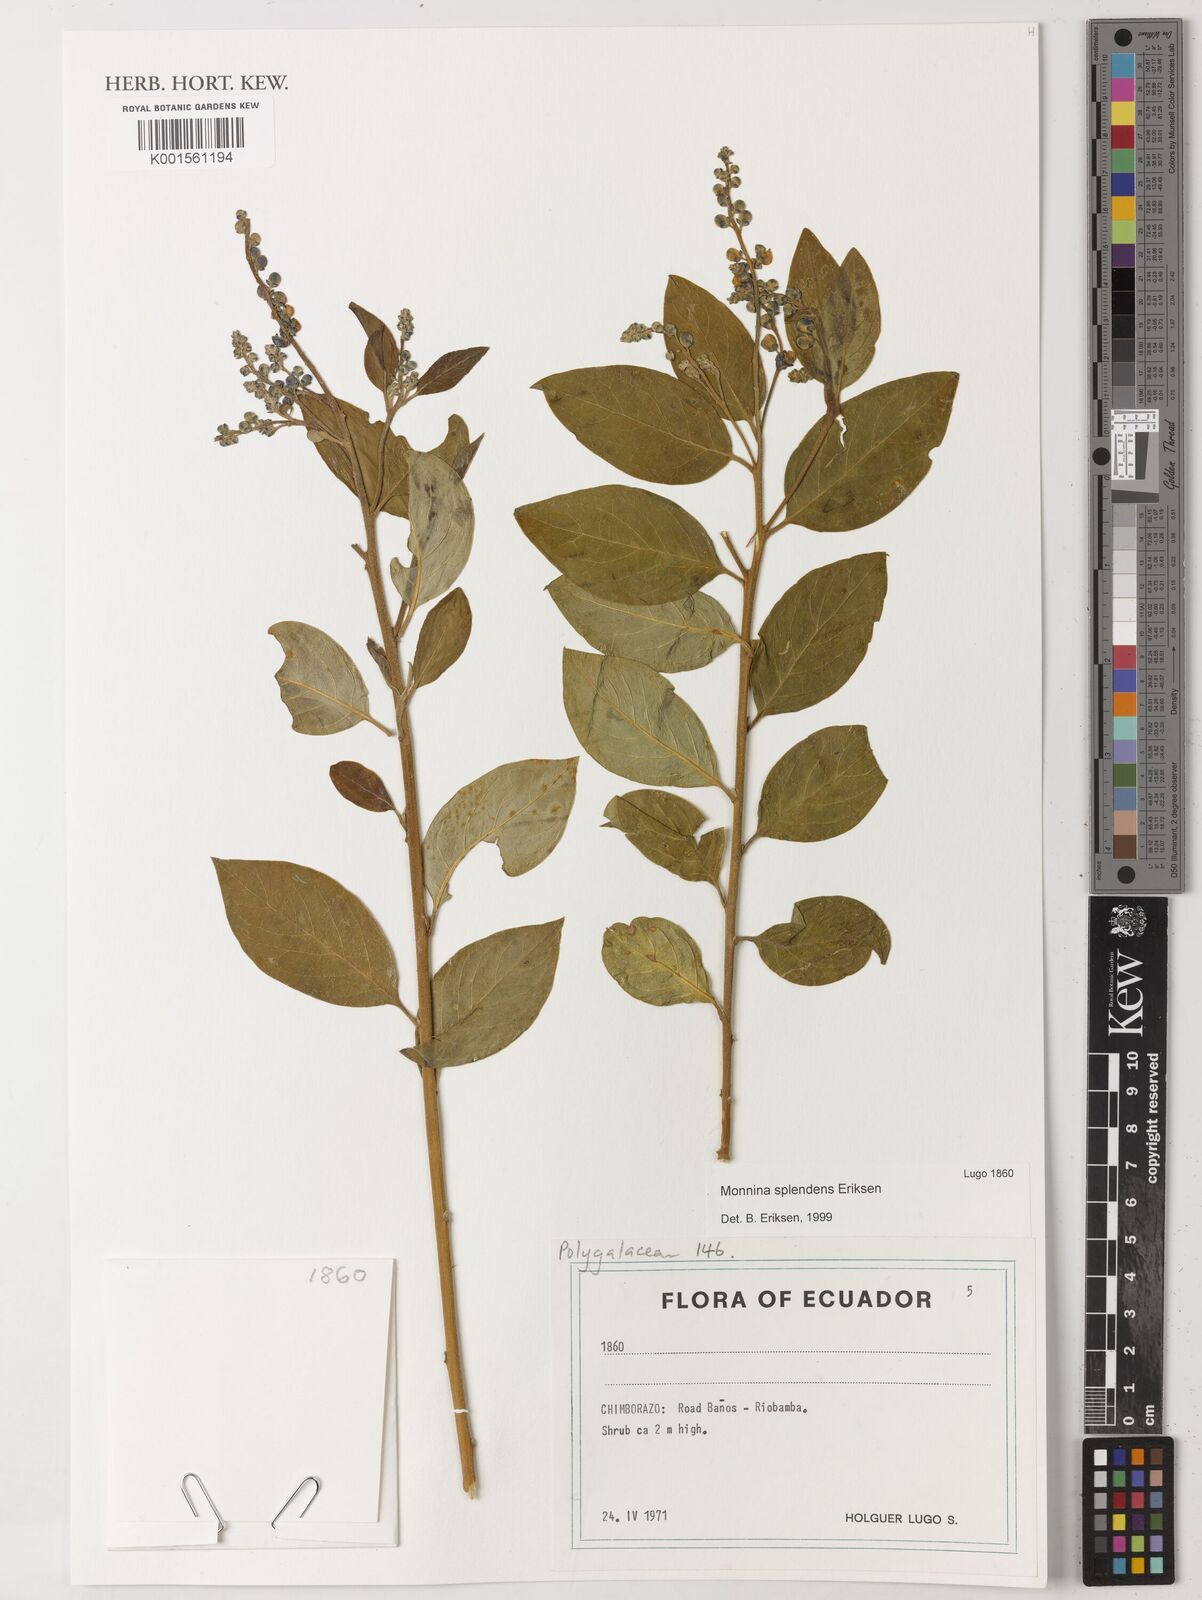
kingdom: Plantae
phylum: Tracheophyta
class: Magnoliopsida
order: Fabales
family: Polygalaceae
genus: Monnina
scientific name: Monnina splendens
